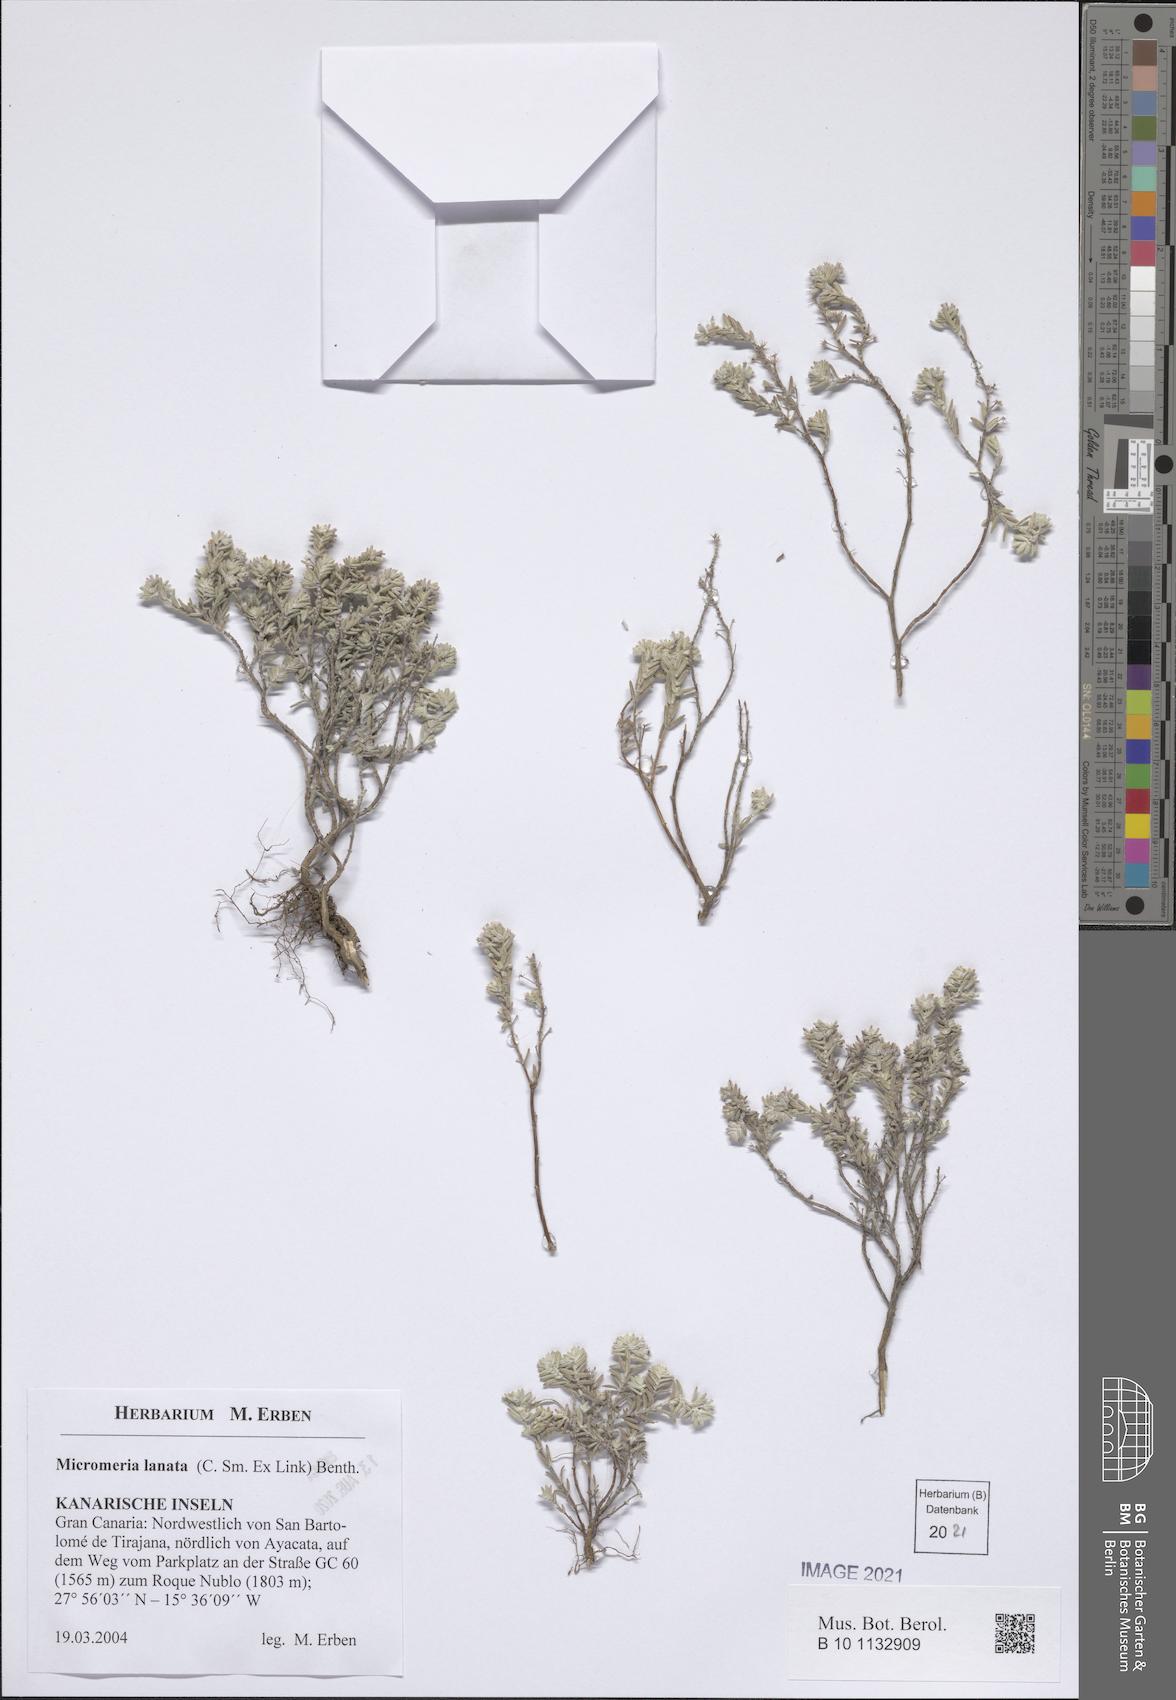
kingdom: Plantae
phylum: Tracheophyta
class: Magnoliopsida
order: Lamiales
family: Lamiaceae
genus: Micromeria
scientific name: Micromeria lanata
